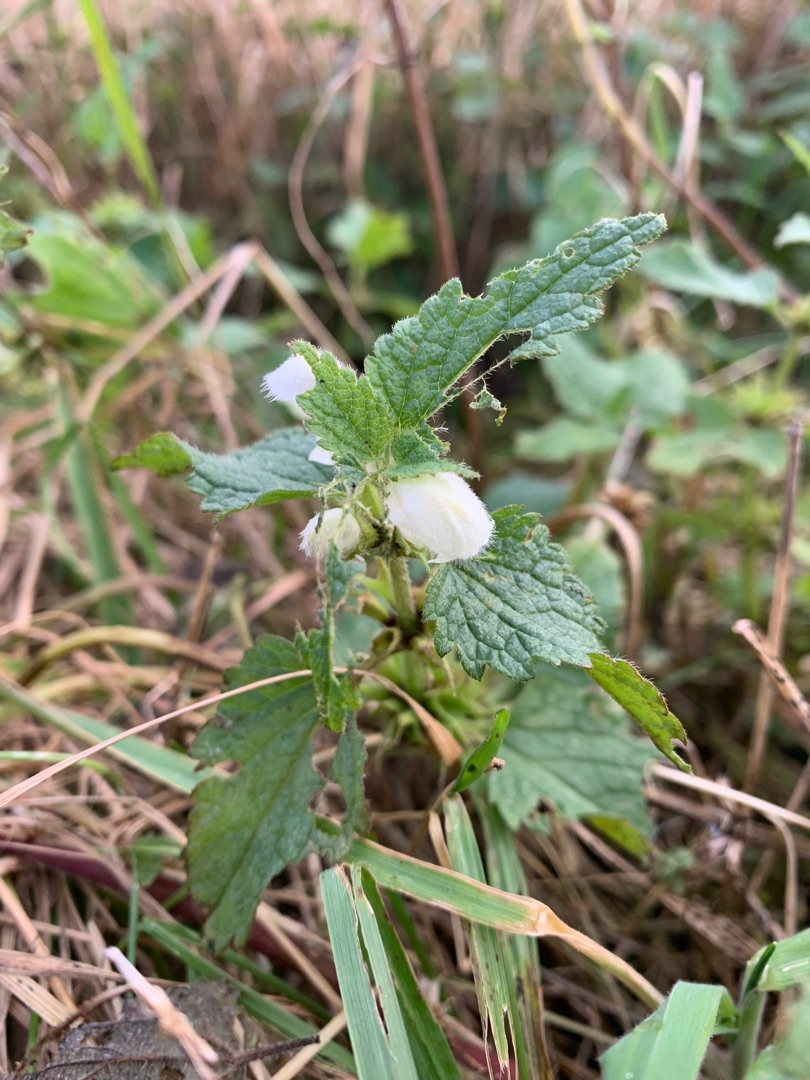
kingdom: Plantae
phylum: Tracheophyta
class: Magnoliopsida
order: Lamiales
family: Lamiaceae
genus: Lamium
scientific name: Lamium album
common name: Døvnælde
